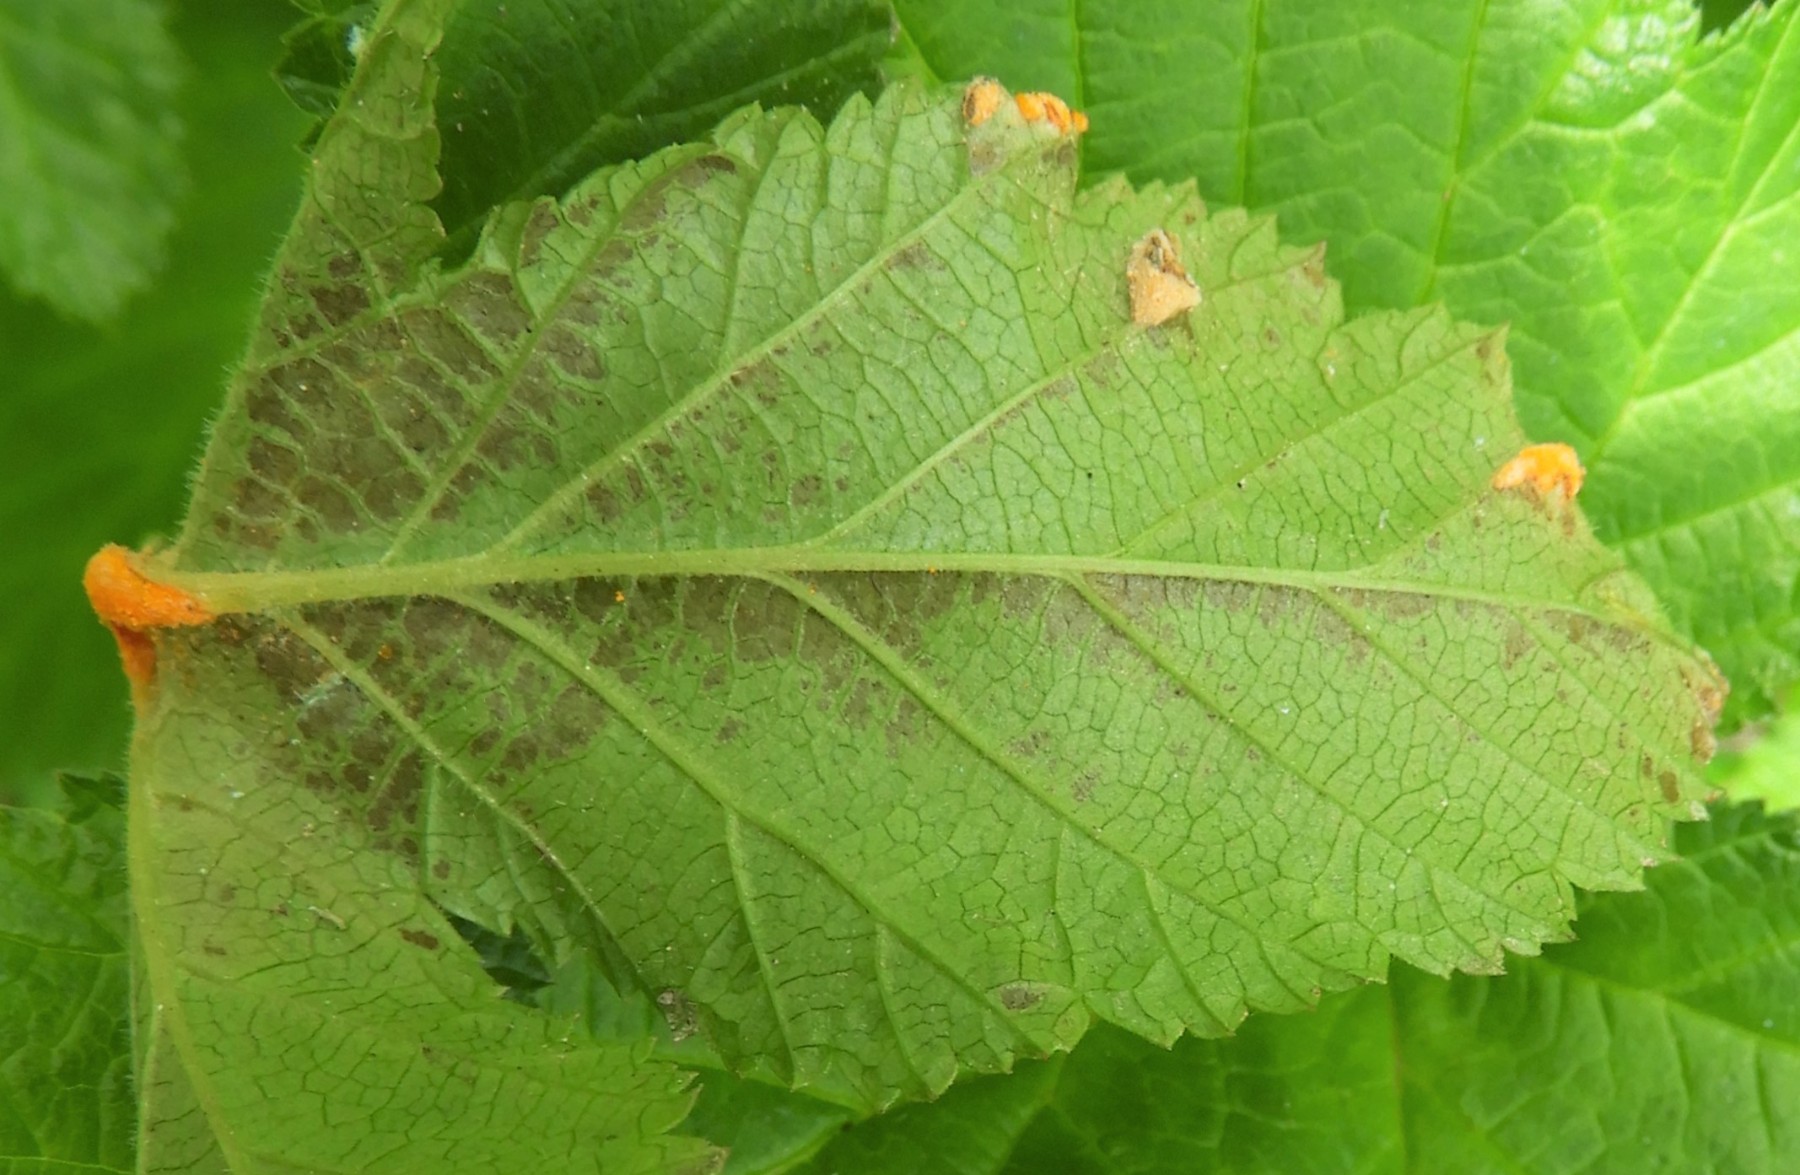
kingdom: Fungi
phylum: Basidiomycota
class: Pucciniomycetes
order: Pucciniales
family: Raveneliaceae
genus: Triphragmium
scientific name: Triphragmium ulmariae
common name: almindelig mjødurtrust
